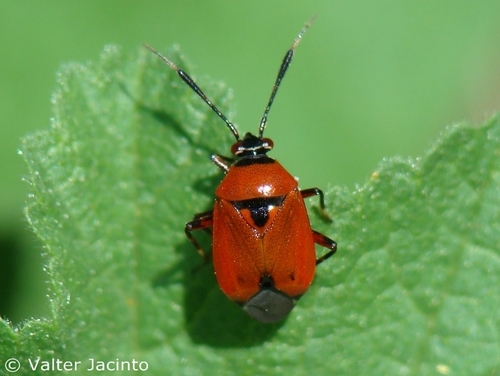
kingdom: Animalia
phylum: Arthropoda
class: Insecta
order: Hemiptera
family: Miridae
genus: Deraeocoris
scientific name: Deraeocoris punctum
